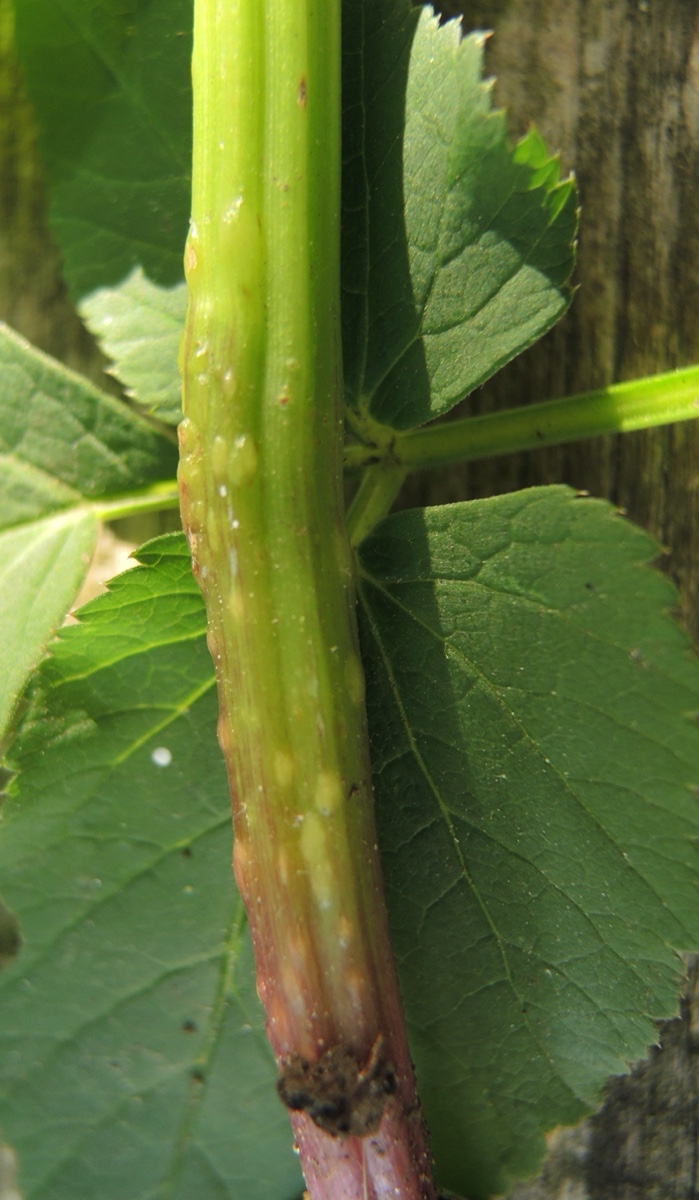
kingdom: Fungi
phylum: Ascomycota
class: Taphrinomycetes
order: Taphrinales
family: Taphrinaceae
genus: Protomyces
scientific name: Protomyces macrosporus
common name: skvalderkål-vablesæk
